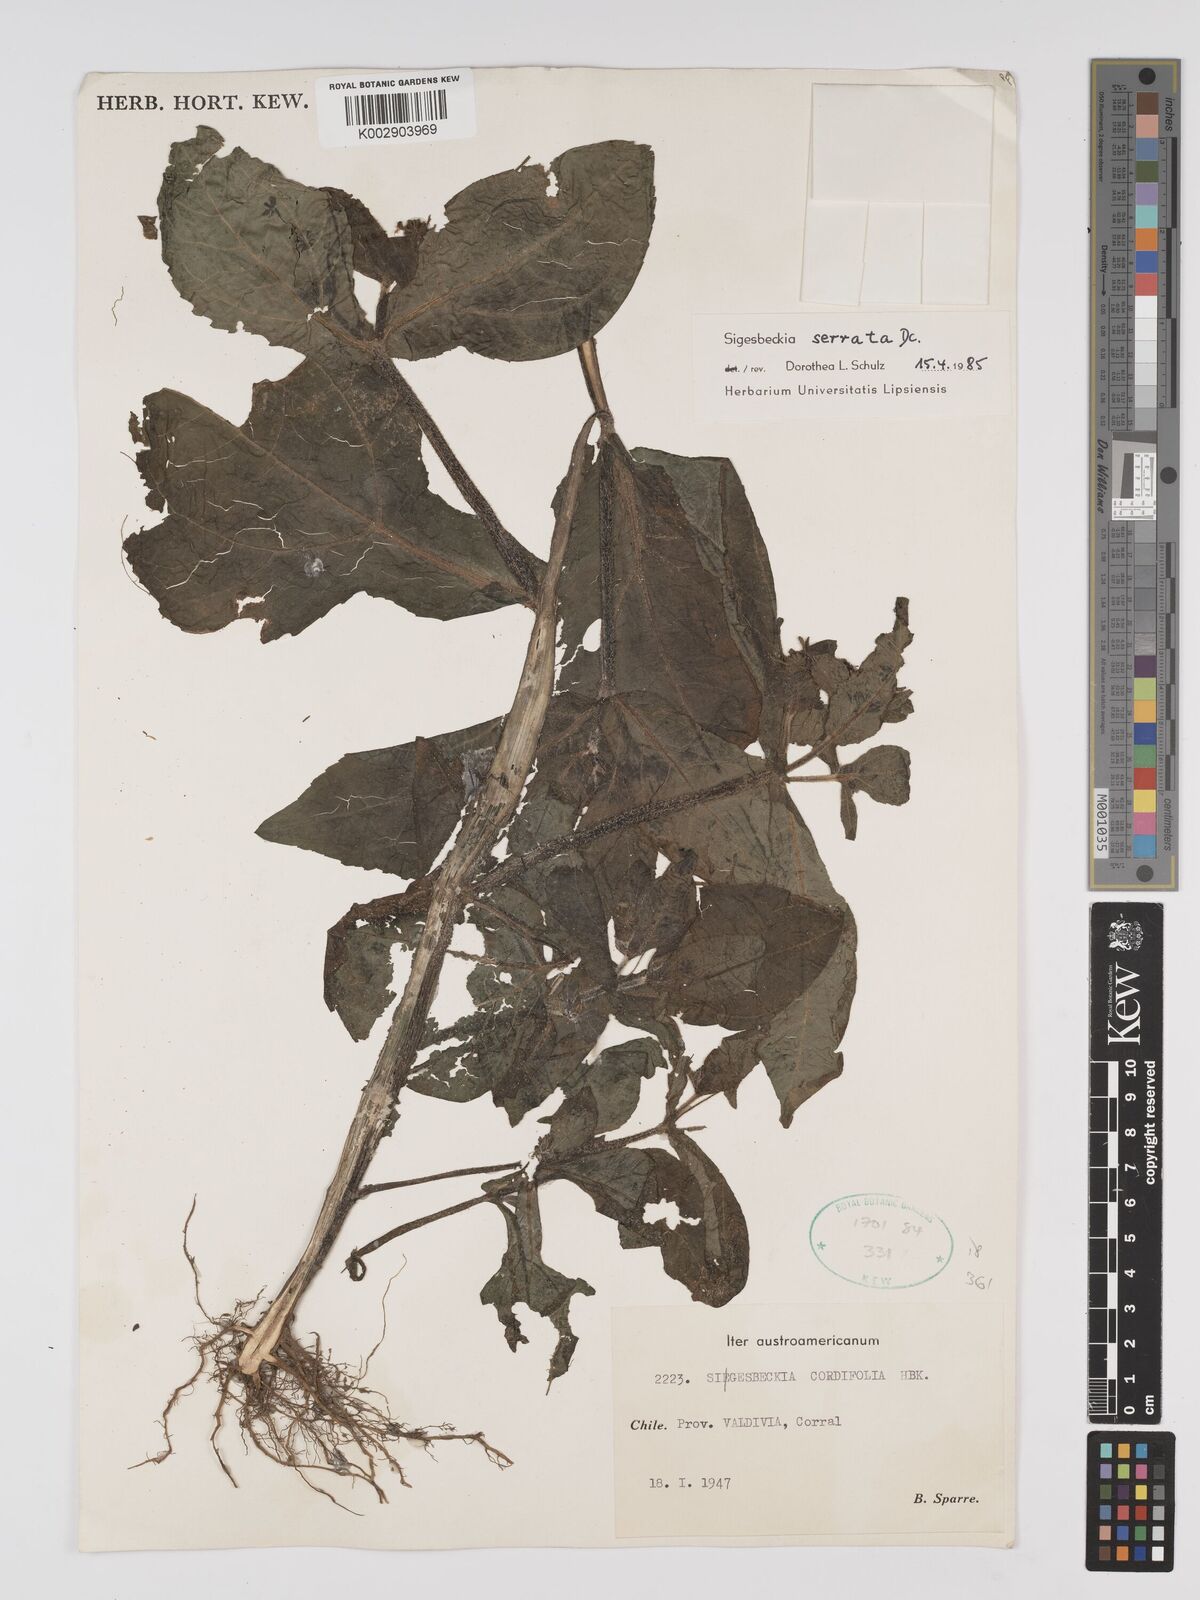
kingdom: Plantae
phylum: Tracheophyta
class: Magnoliopsida
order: Asterales
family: Asteraceae
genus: Sigesbeckia
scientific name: Sigesbeckia jorullensis
